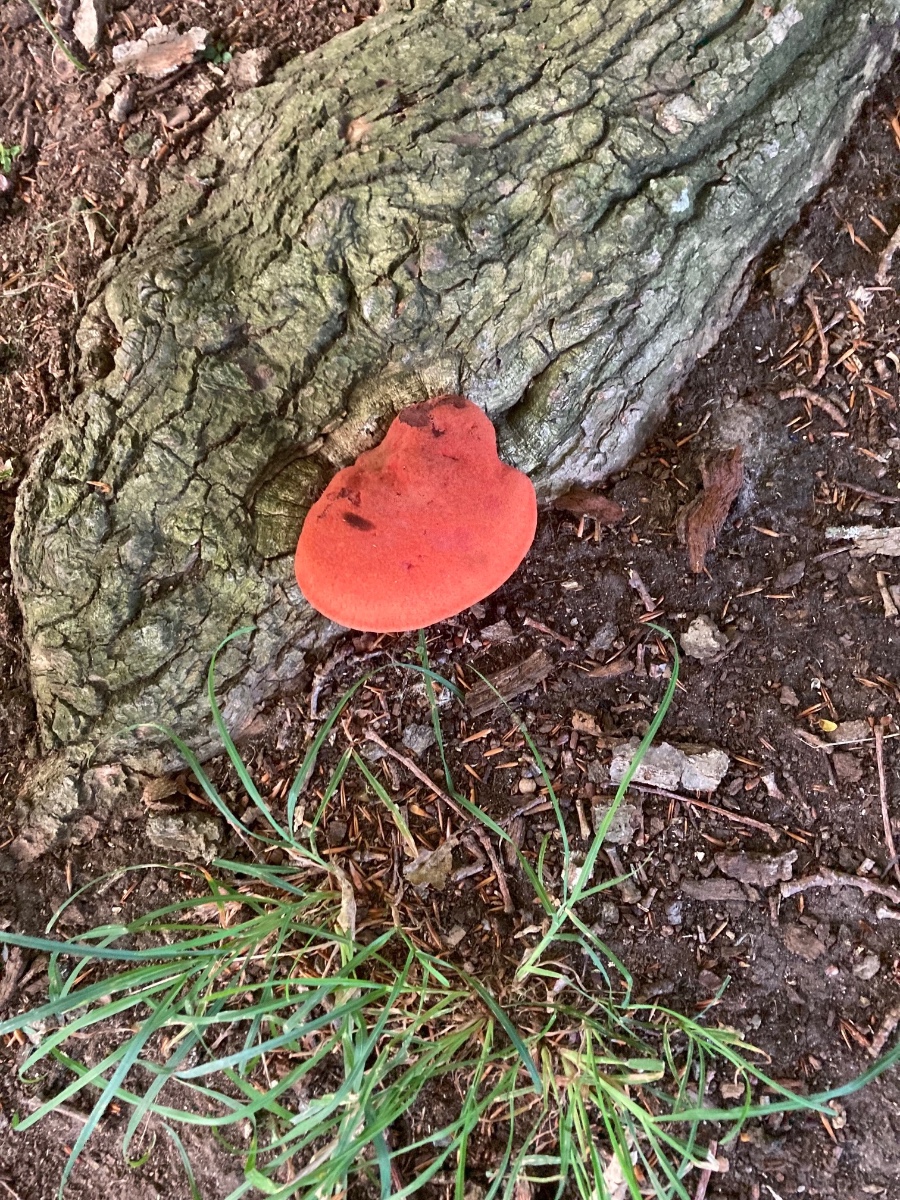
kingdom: Fungi
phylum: Basidiomycota
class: Agaricomycetes
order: Agaricales
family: Fistulinaceae
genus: Fistulina
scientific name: Fistulina hepatica
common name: oksetunge
